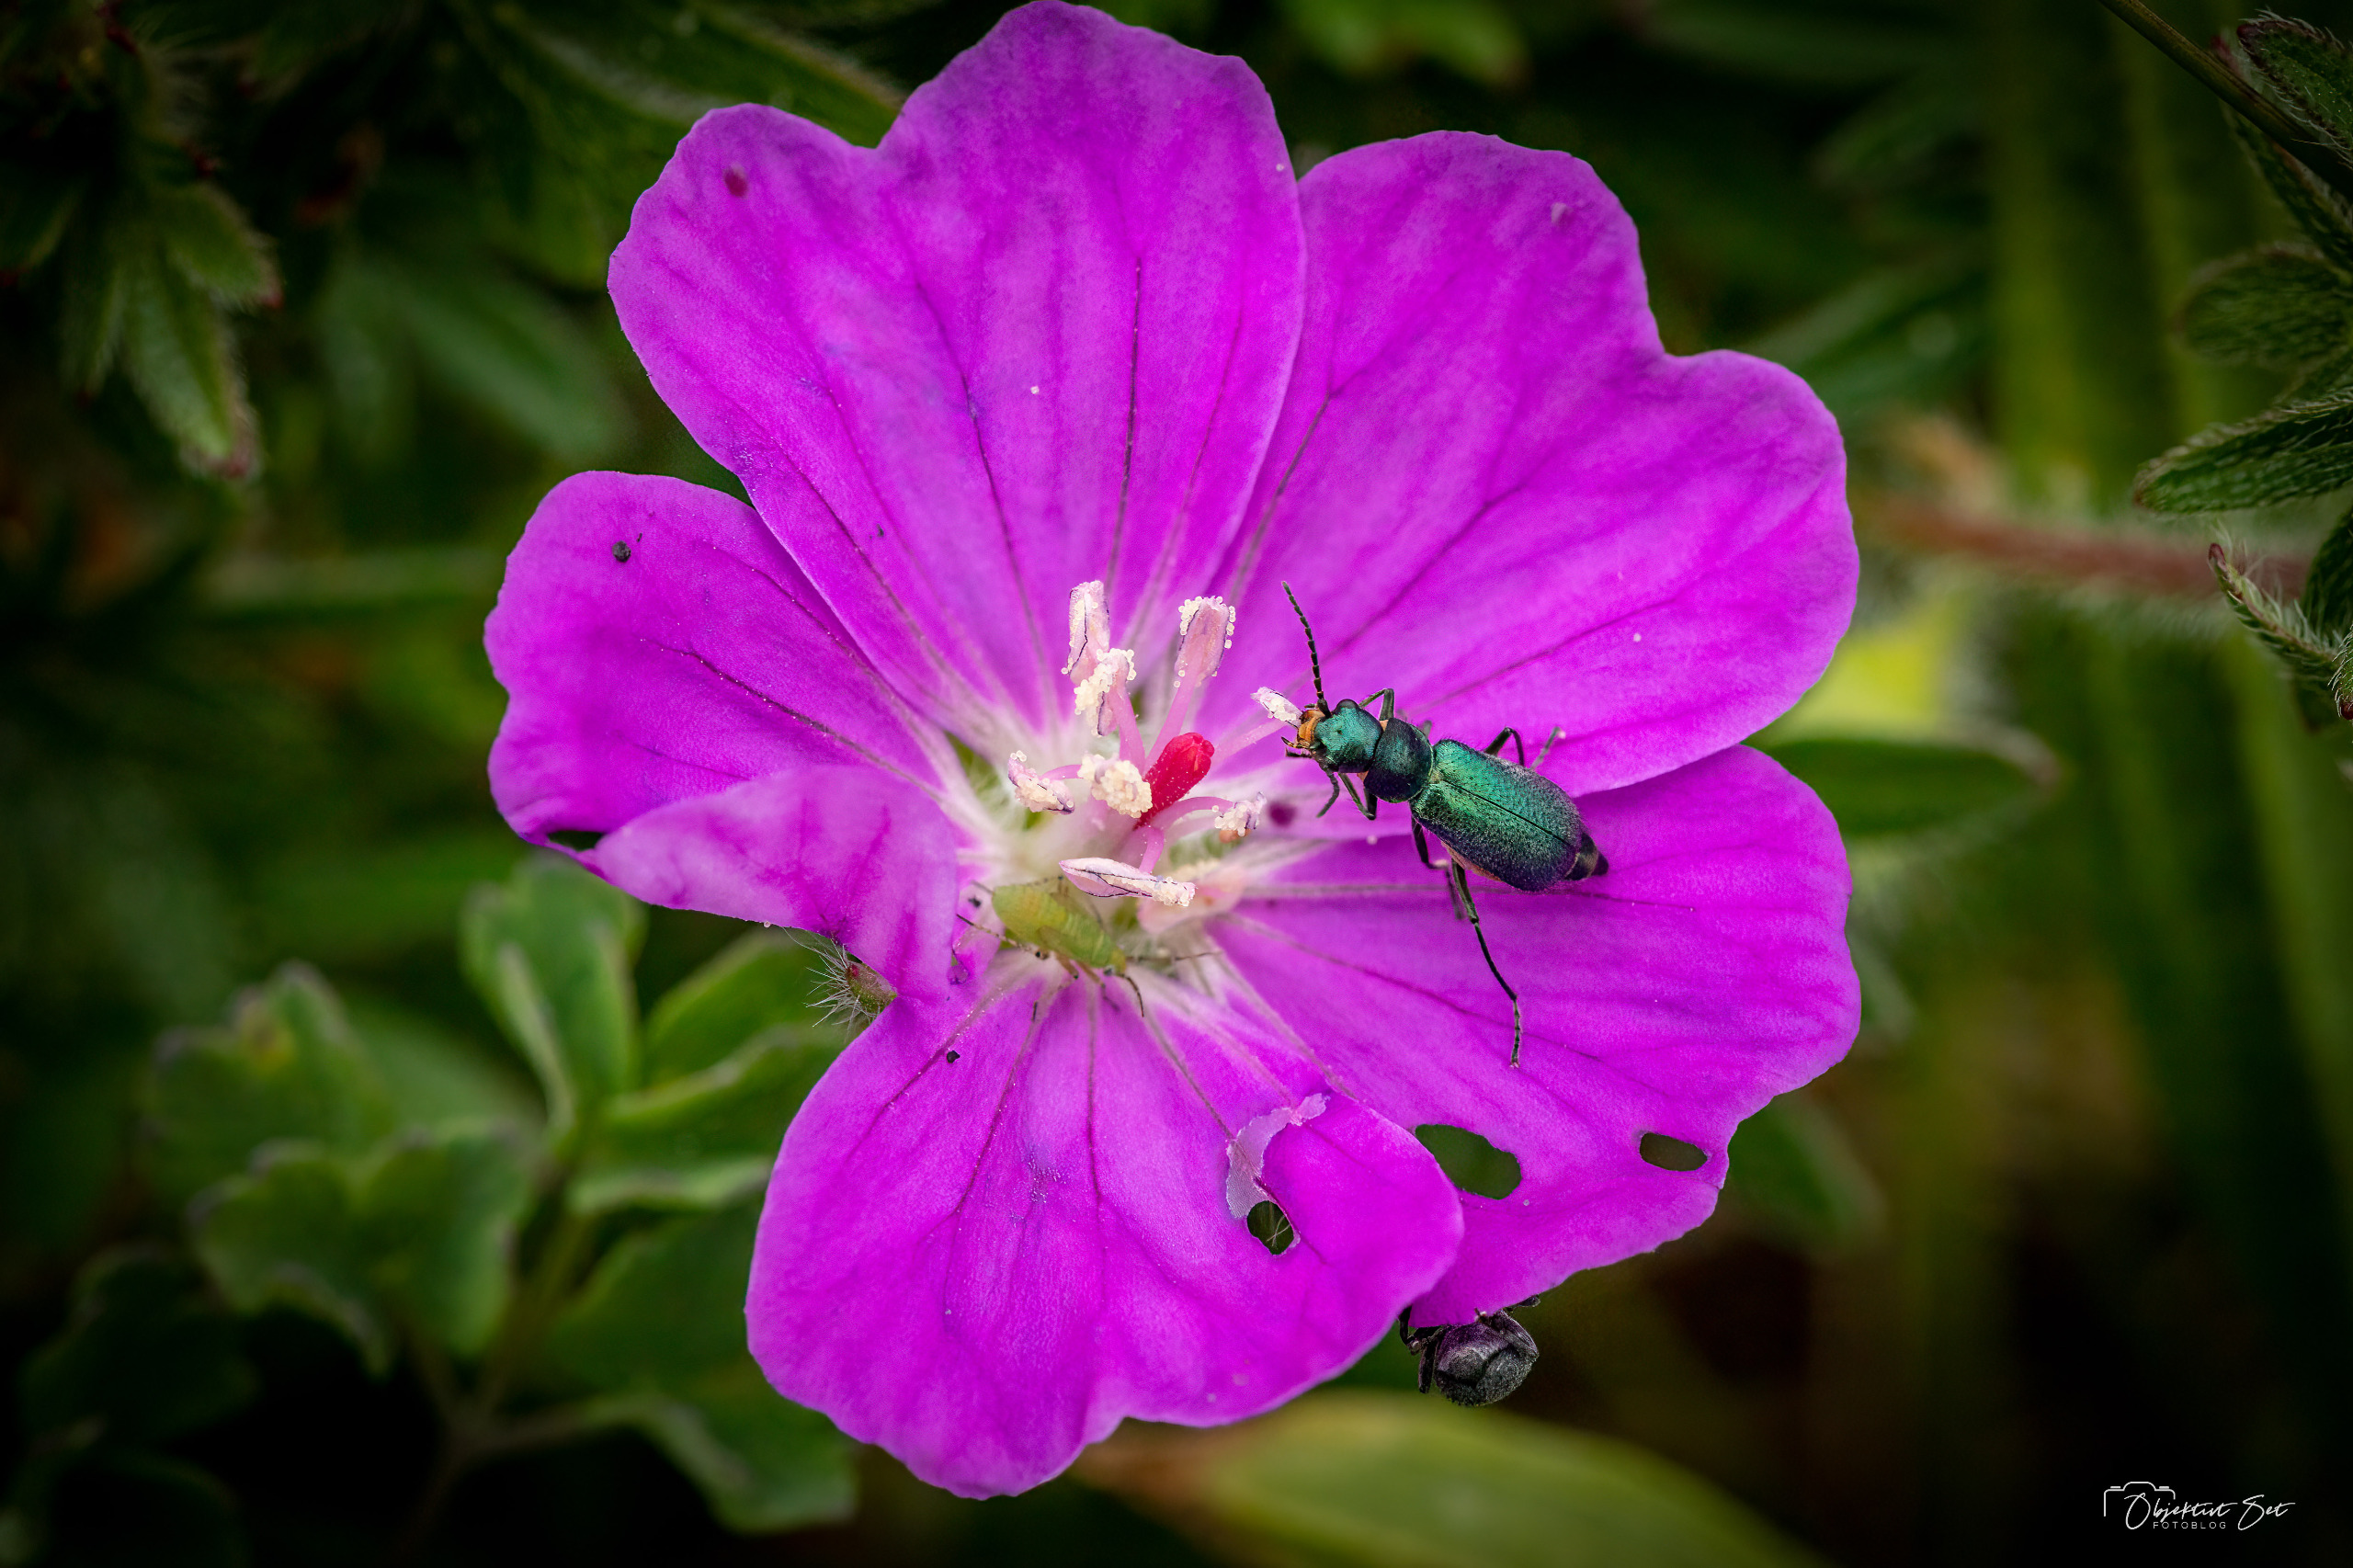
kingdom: Animalia
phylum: Arthropoda
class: Insecta
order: Coleoptera
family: Malachiidae
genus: Cordylepherus
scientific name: Cordylepherus viridis
